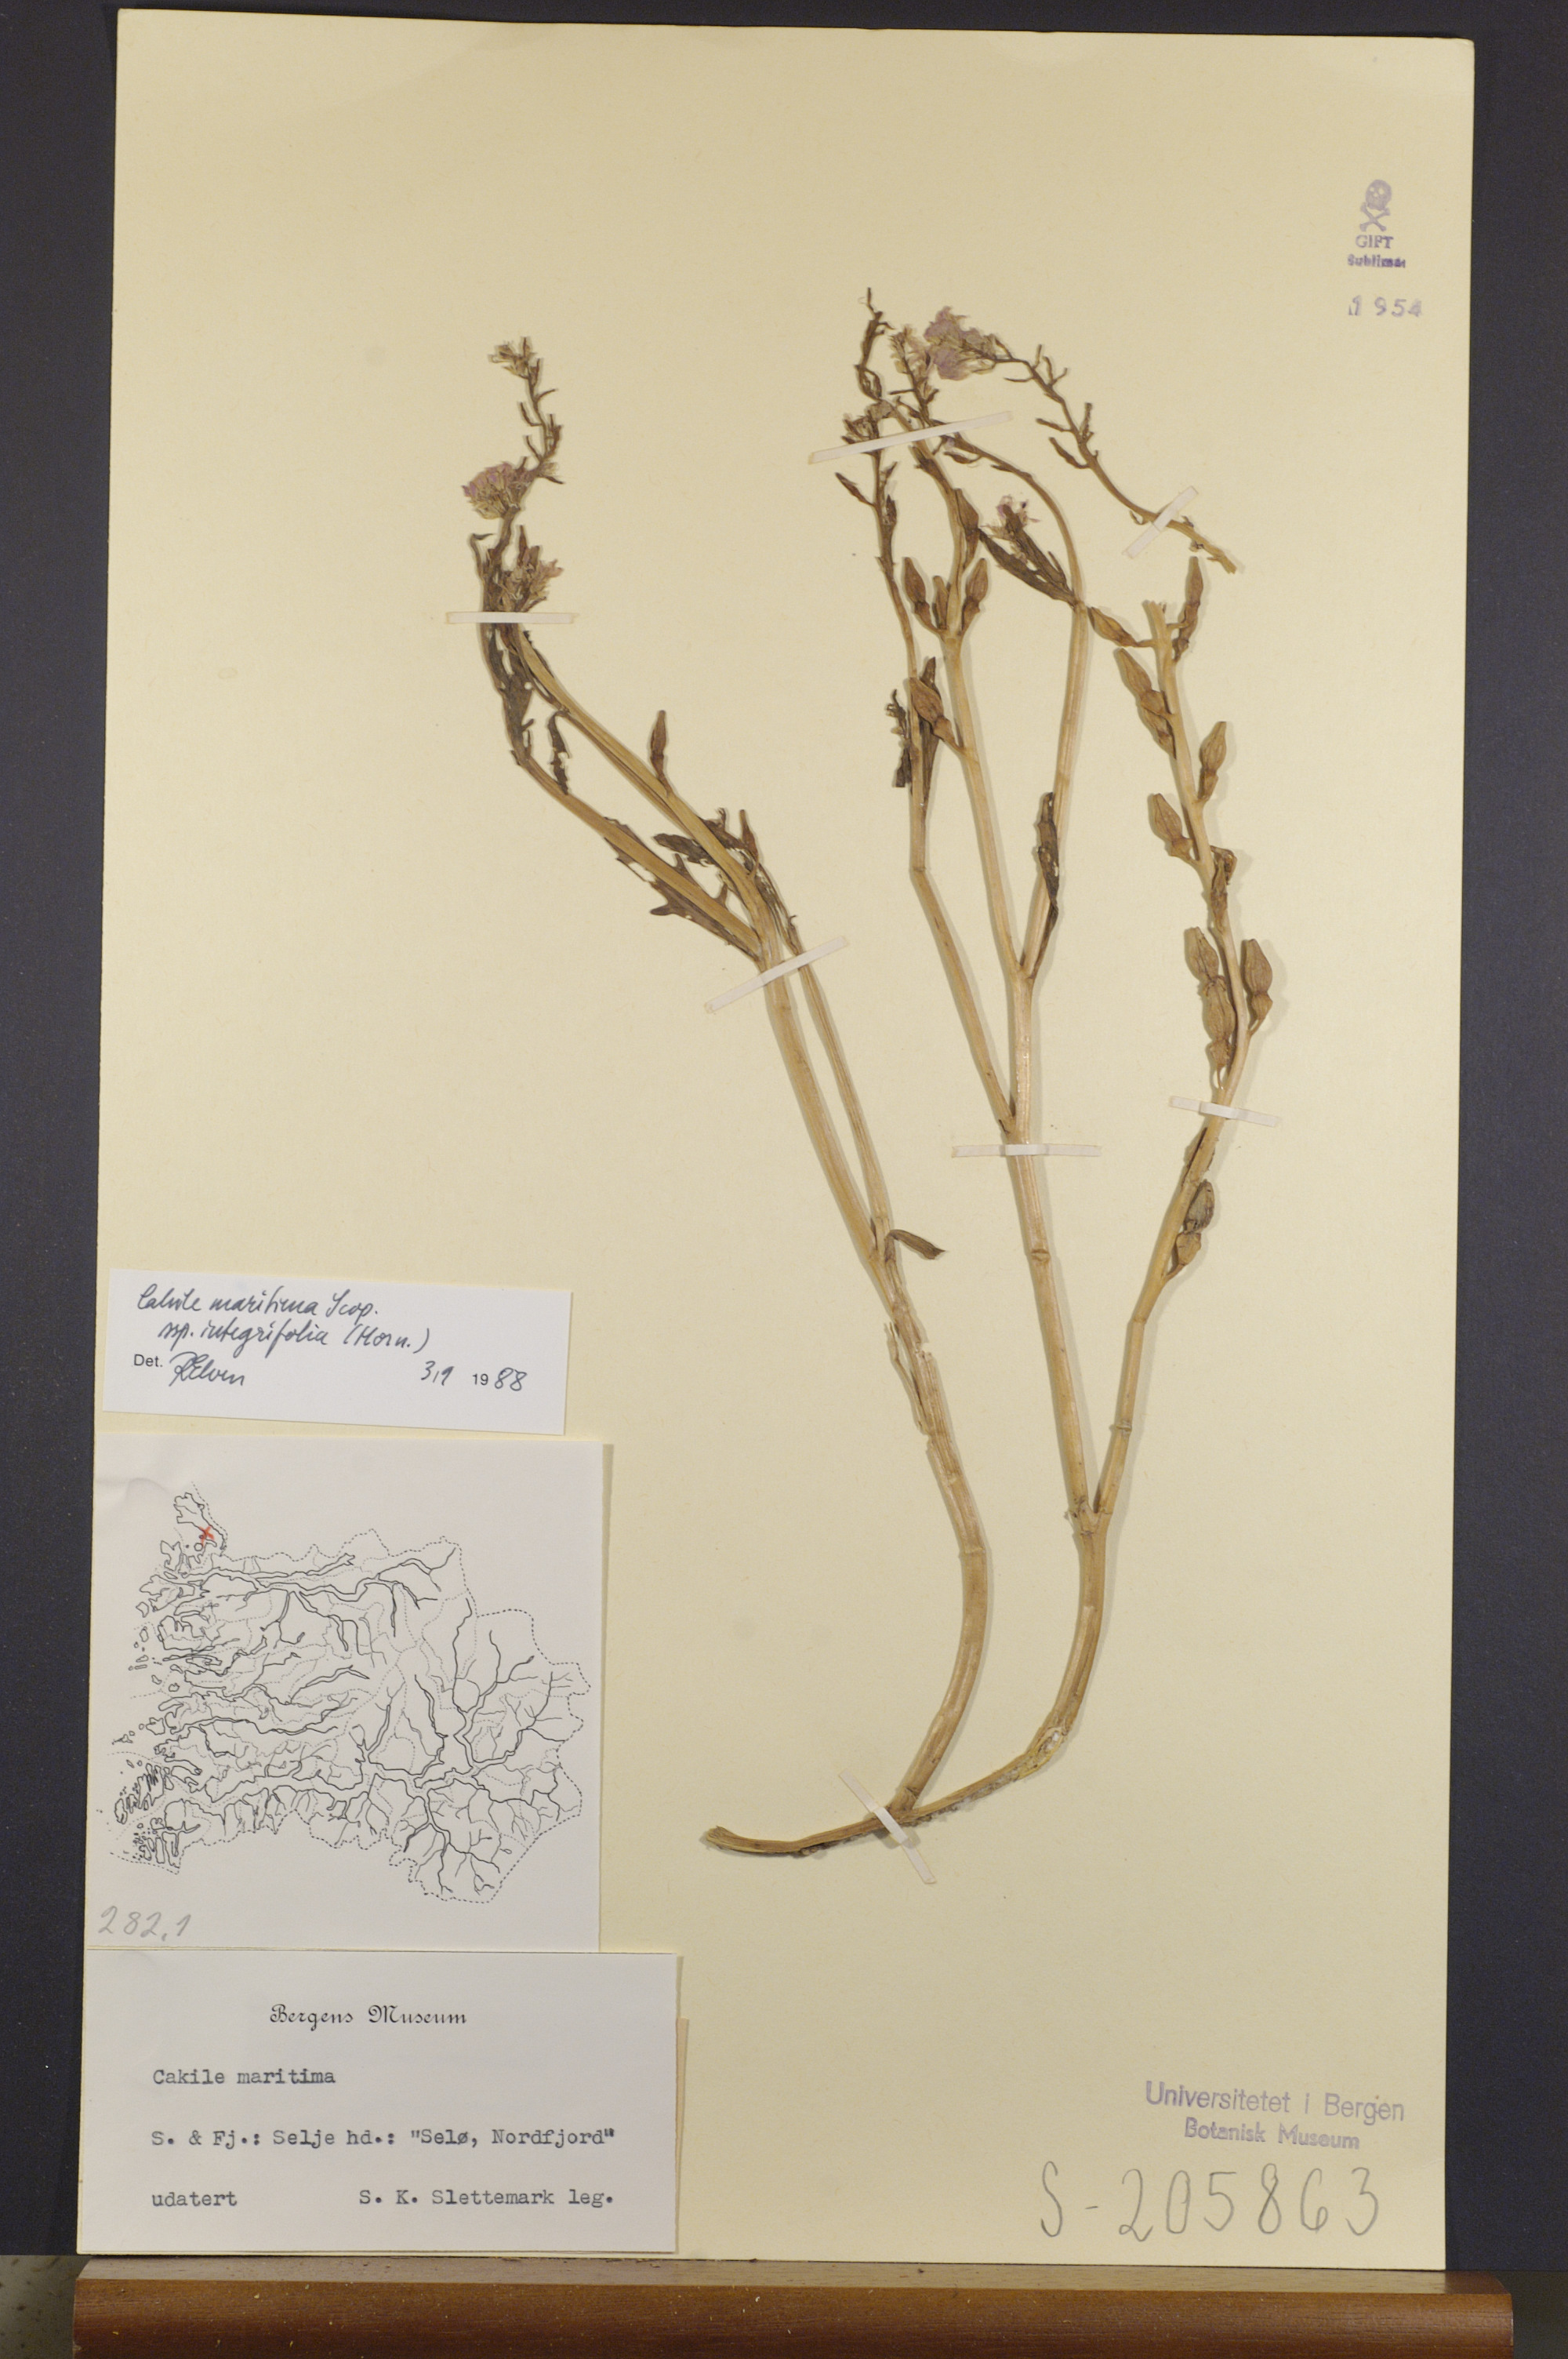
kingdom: Plantae
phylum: Tracheophyta
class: Magnoliopsida
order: Brassicales
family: Brassicaceae
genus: Cakile
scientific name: Cakile maritima
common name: Sea rocket
